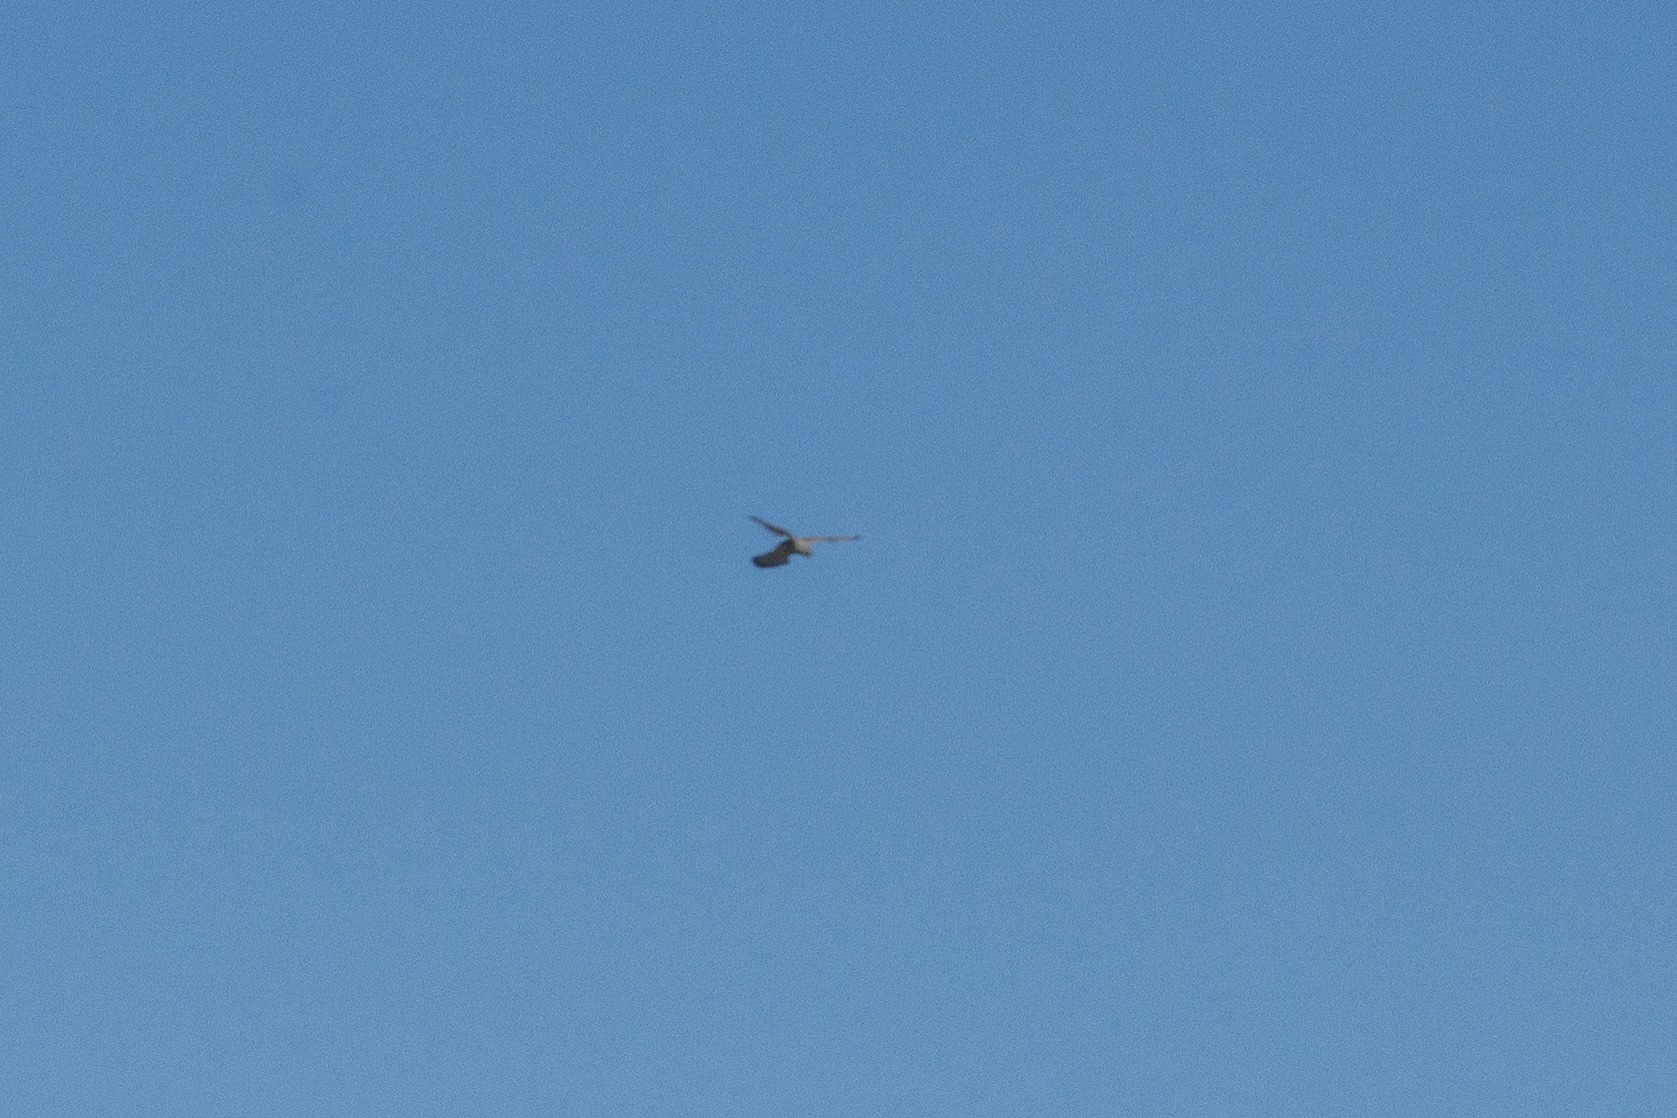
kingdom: Animalia
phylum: Chordata
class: Aves
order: Falconiformes
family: Falconidae
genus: Falco
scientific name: Falco tinnunculus
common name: Tårnfalk
